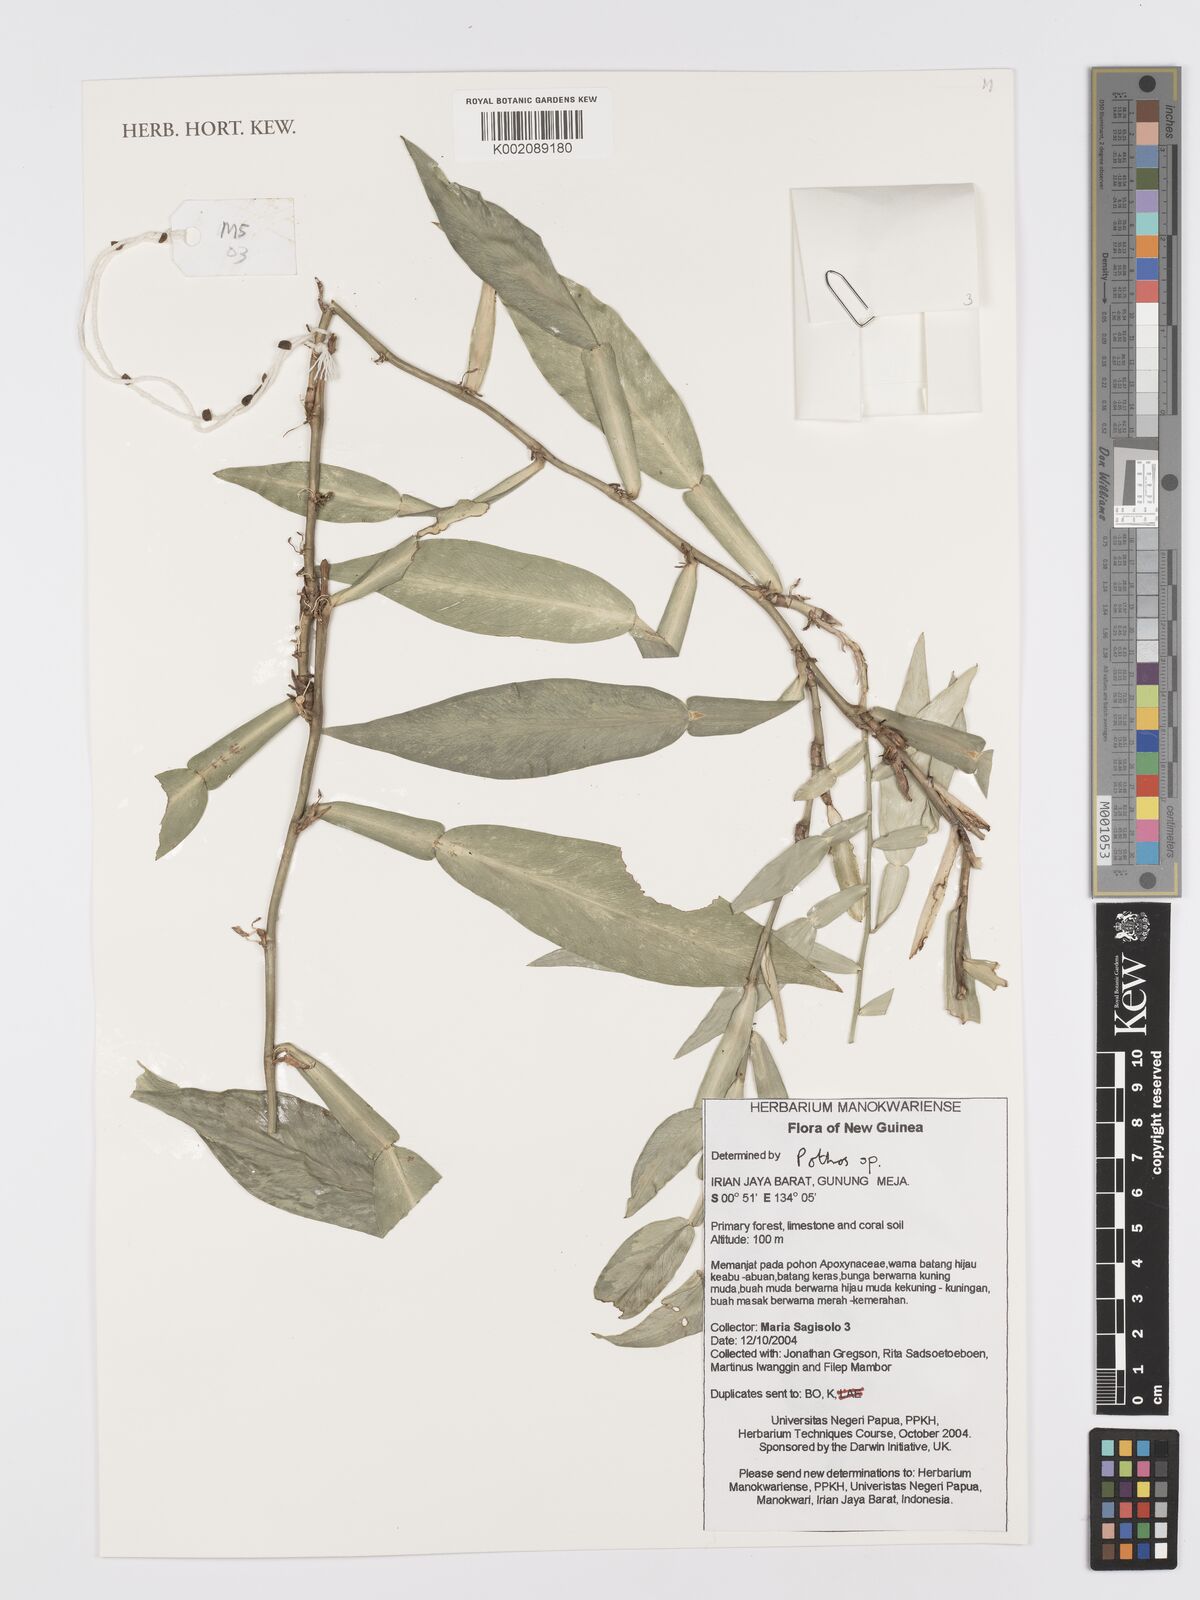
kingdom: Plantae
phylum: Tracheophyta
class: Liliopsida
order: Alismatales
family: Araceae
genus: Pothos
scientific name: Pothos
